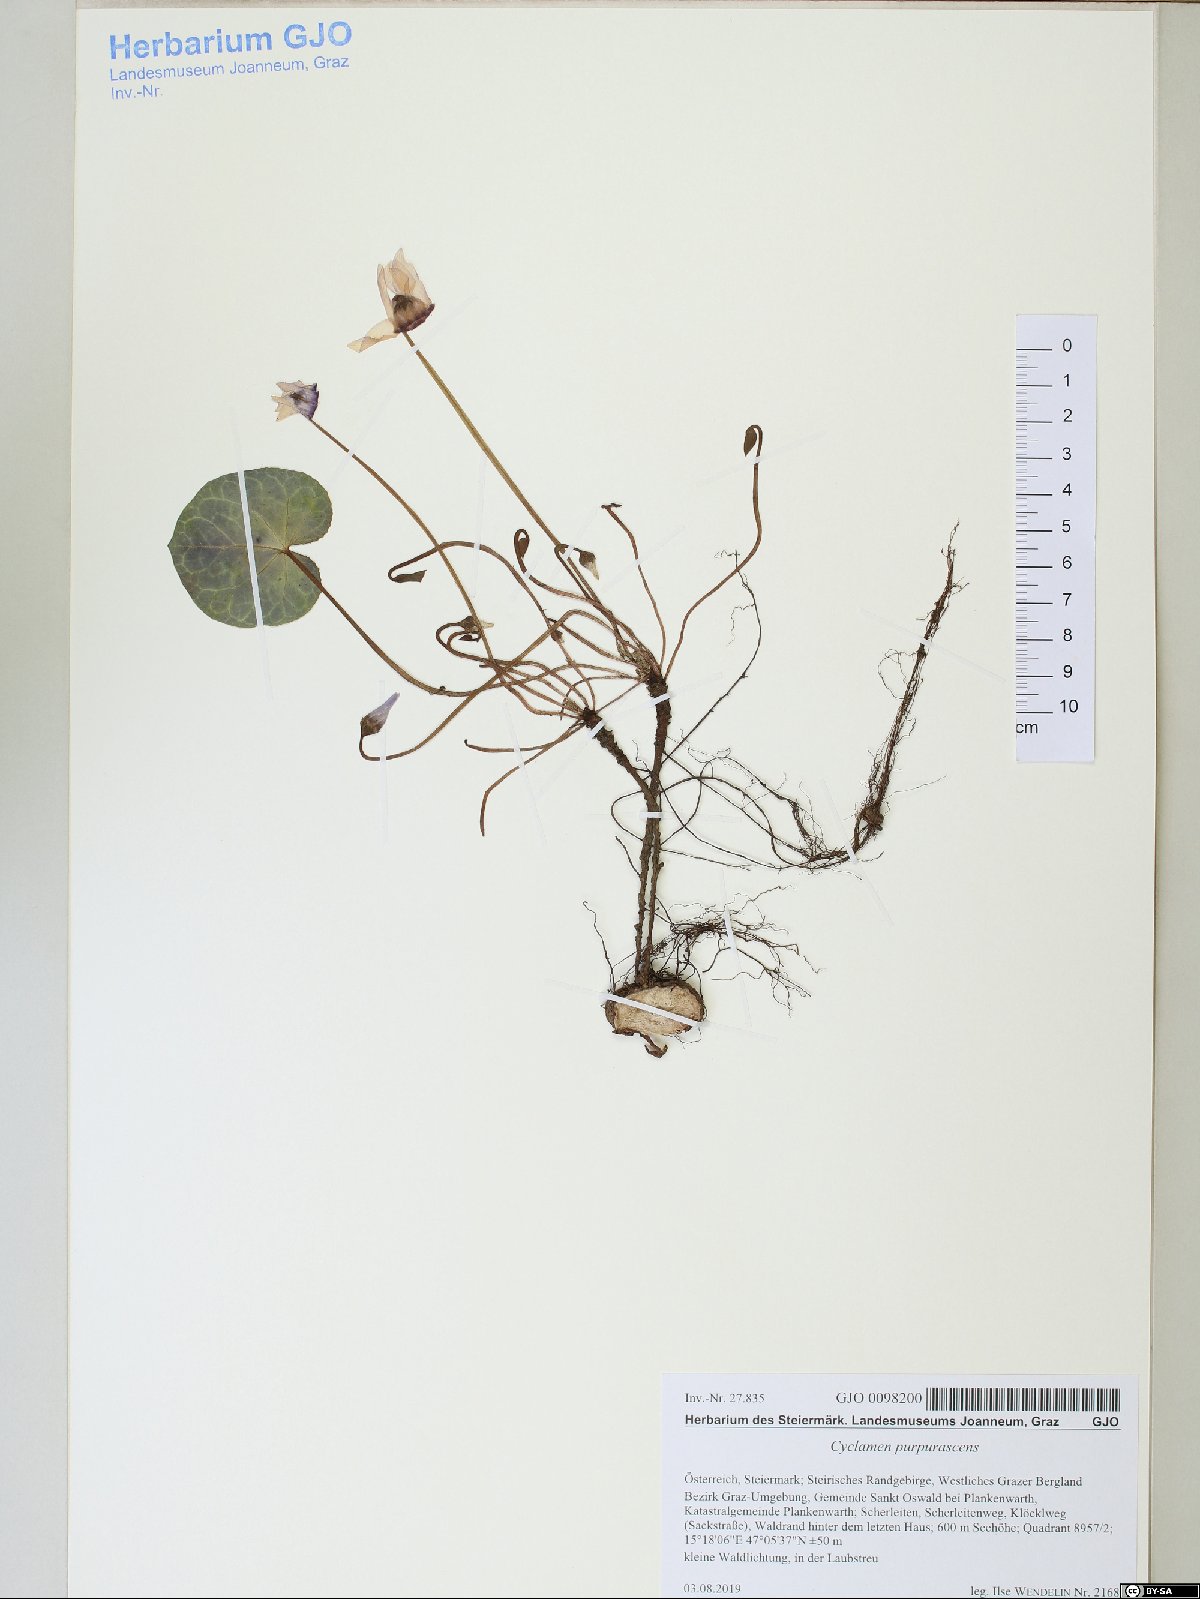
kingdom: Plantae
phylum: Tracheophyta
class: Magnoliopsida
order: Ericales
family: Primulaceae
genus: Cyclamen
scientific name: Cyclamen purpurascens
